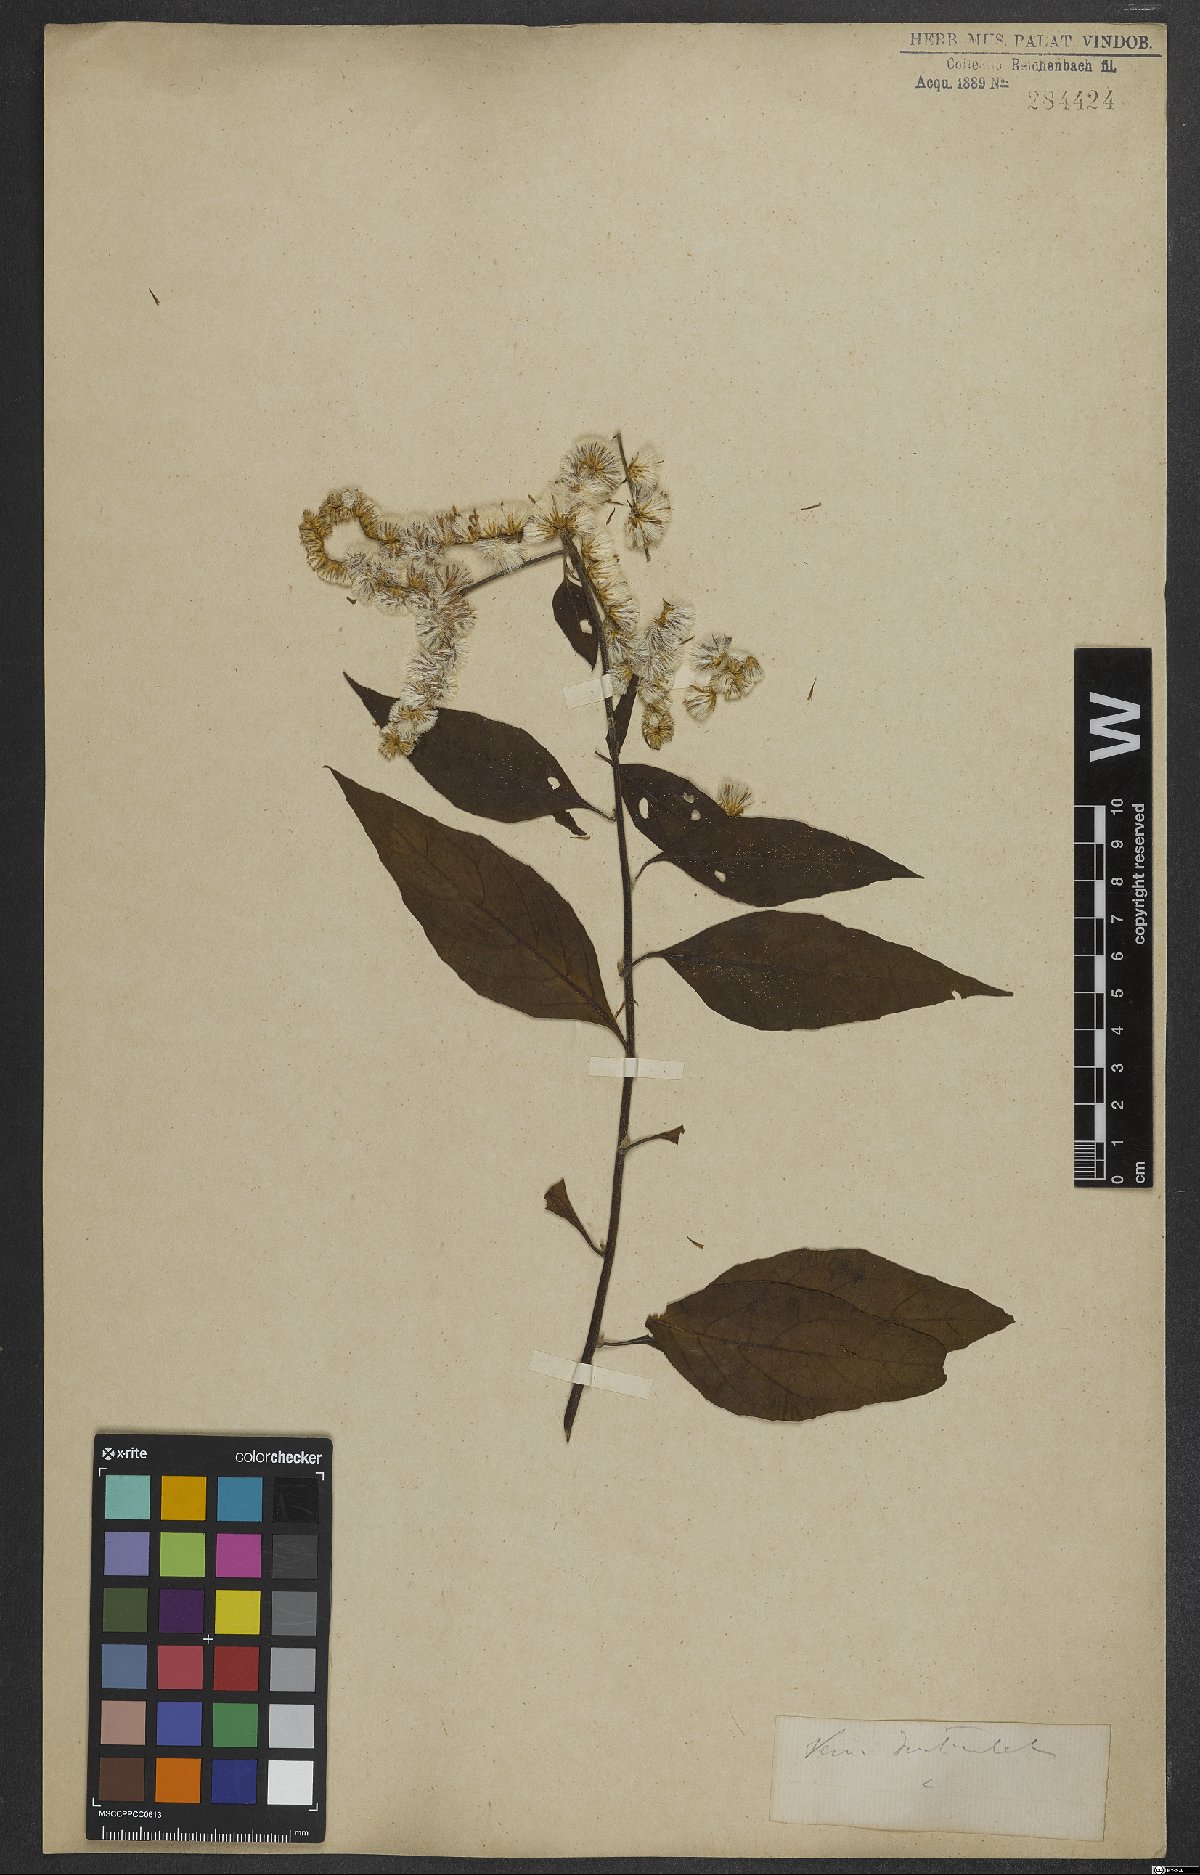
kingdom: Plantae
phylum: Tracheophyta
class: Magnoliopsida
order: Asterales
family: Asteraceae
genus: Vernonanthura
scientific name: Vernonanthura beyrichii
